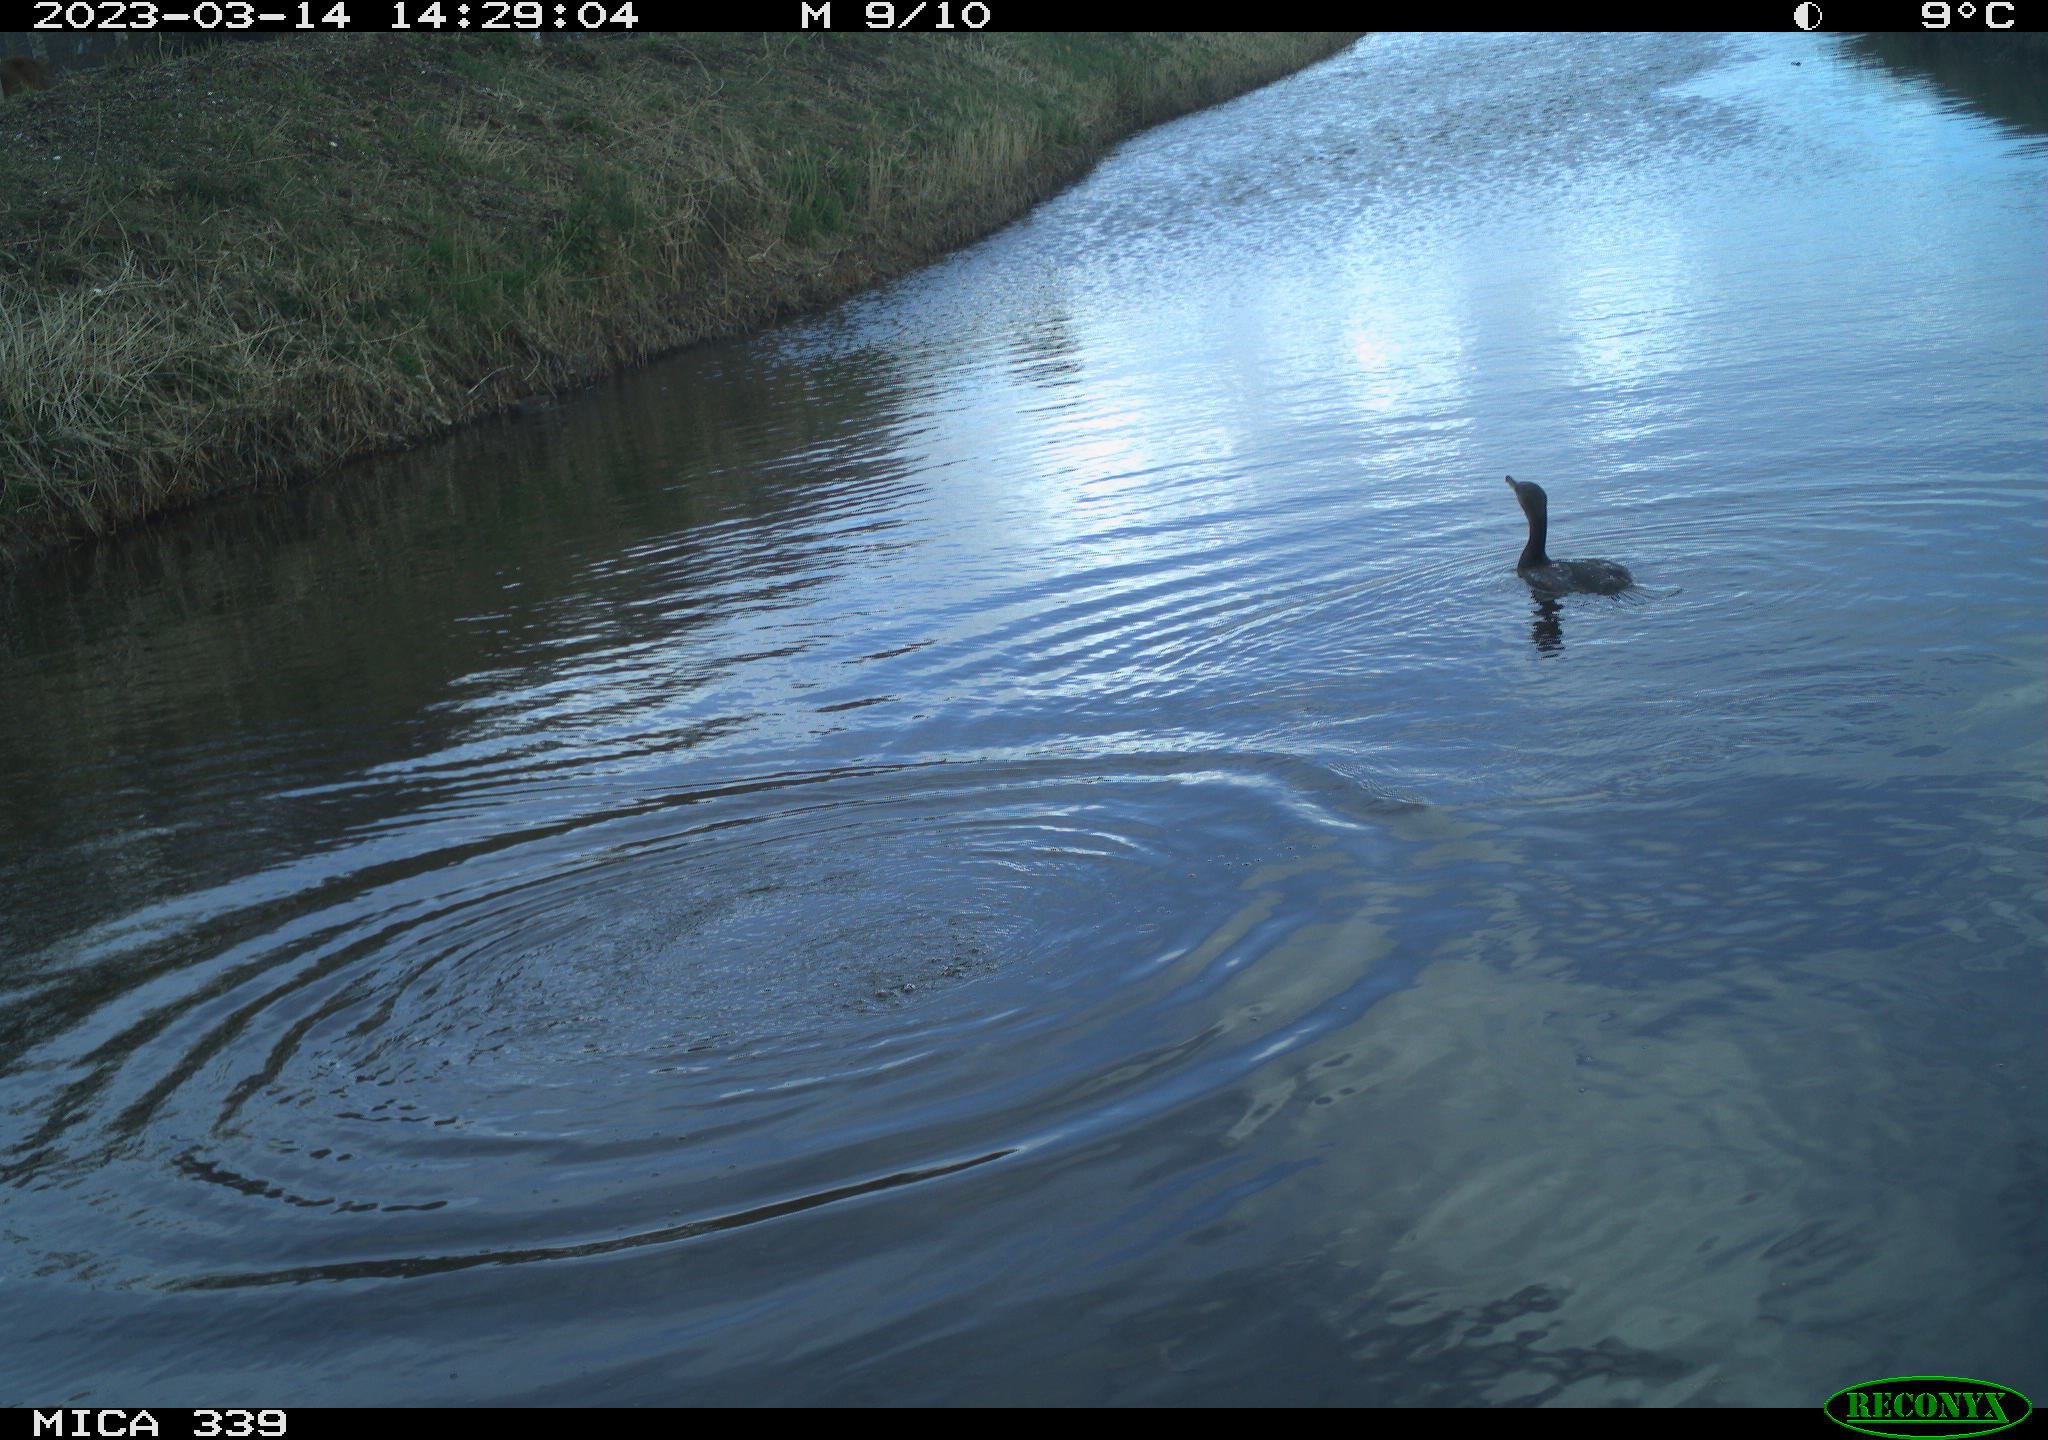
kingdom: Animalia
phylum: Chordata
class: Aves
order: Gruiformes
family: Rallidae
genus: Fulica
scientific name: Fulica atra
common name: Eurasian coot
